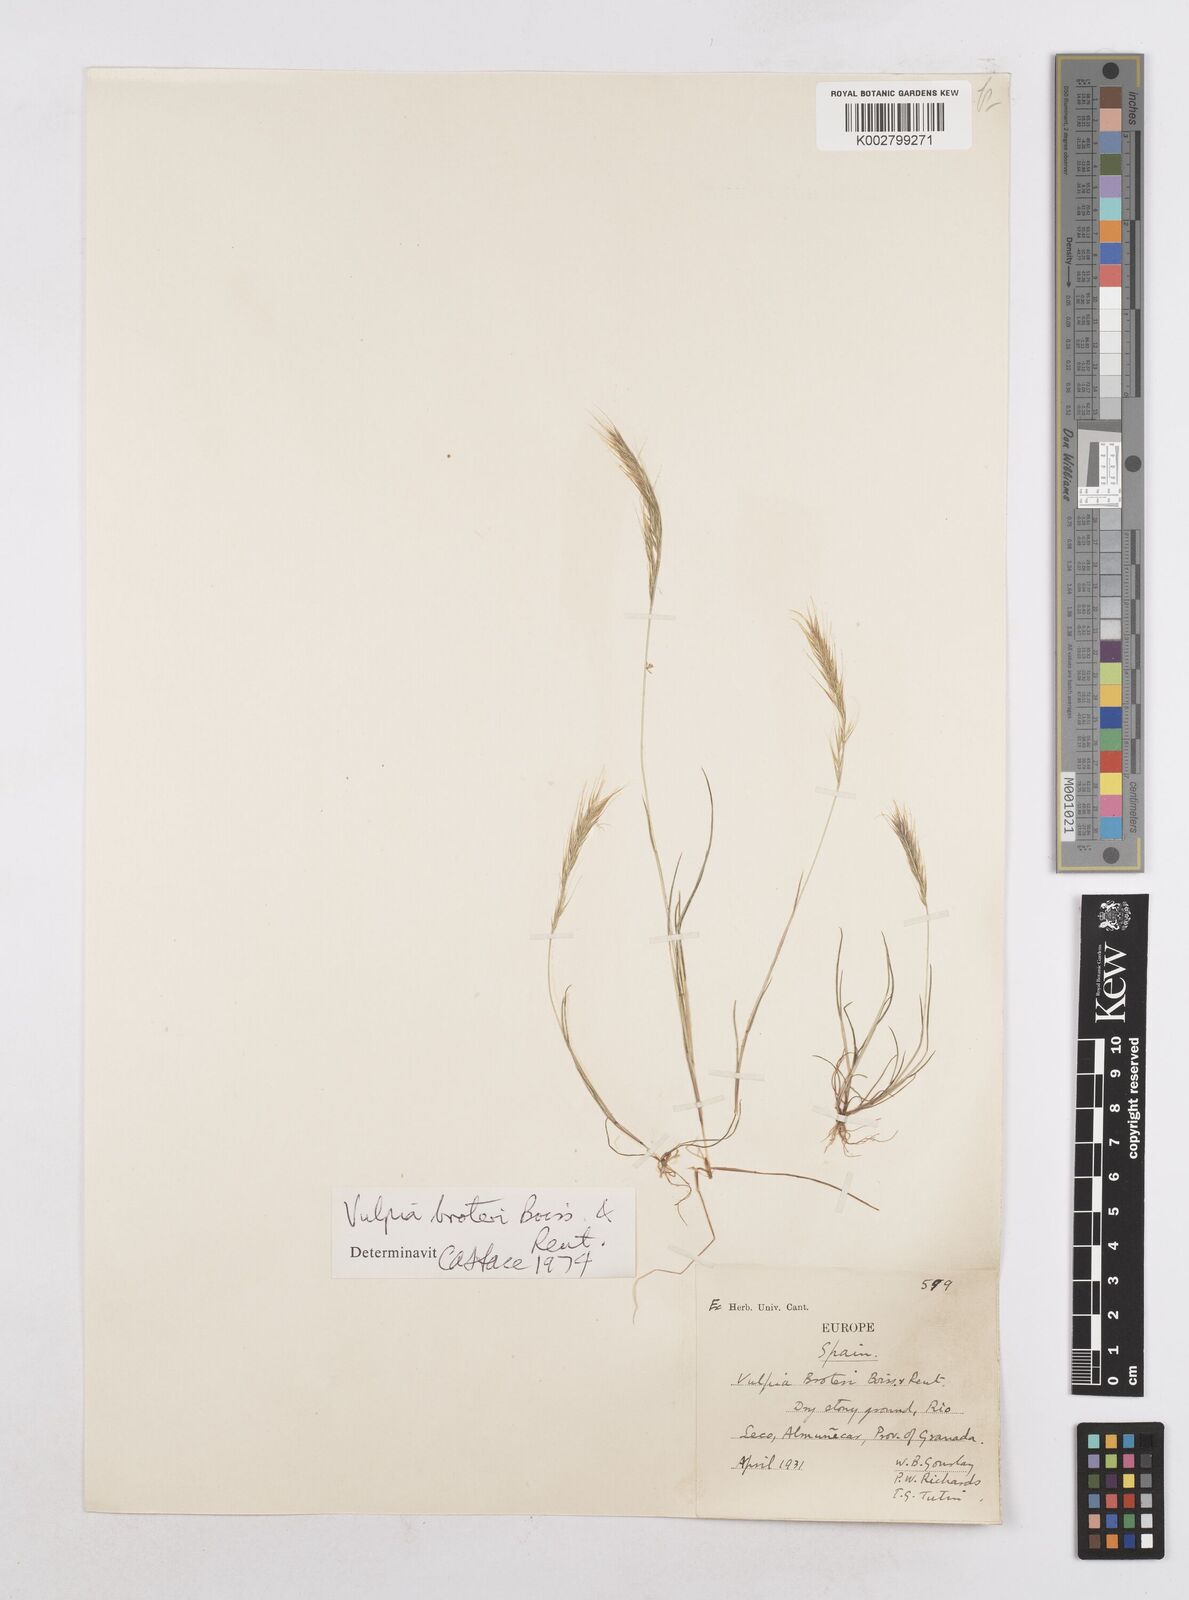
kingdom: Plantae
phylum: Tracheophyta
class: Liliopsida
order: Poales
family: Poaceae
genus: Festuca
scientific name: Festuca muralis
